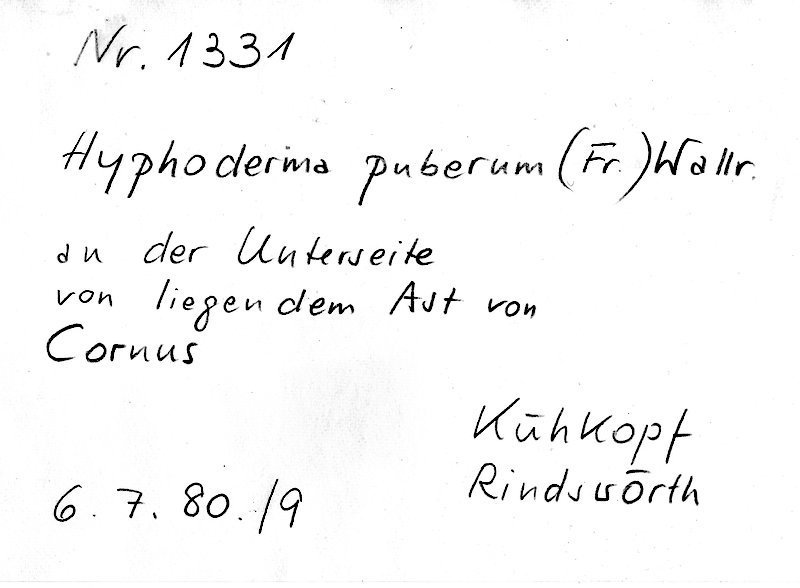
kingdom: Fungi
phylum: Basidiomycota
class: Agaricomycetes
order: Hymenochaetales
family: Rickenellaceae
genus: Peniophorella
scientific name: Peniophorella pubera
